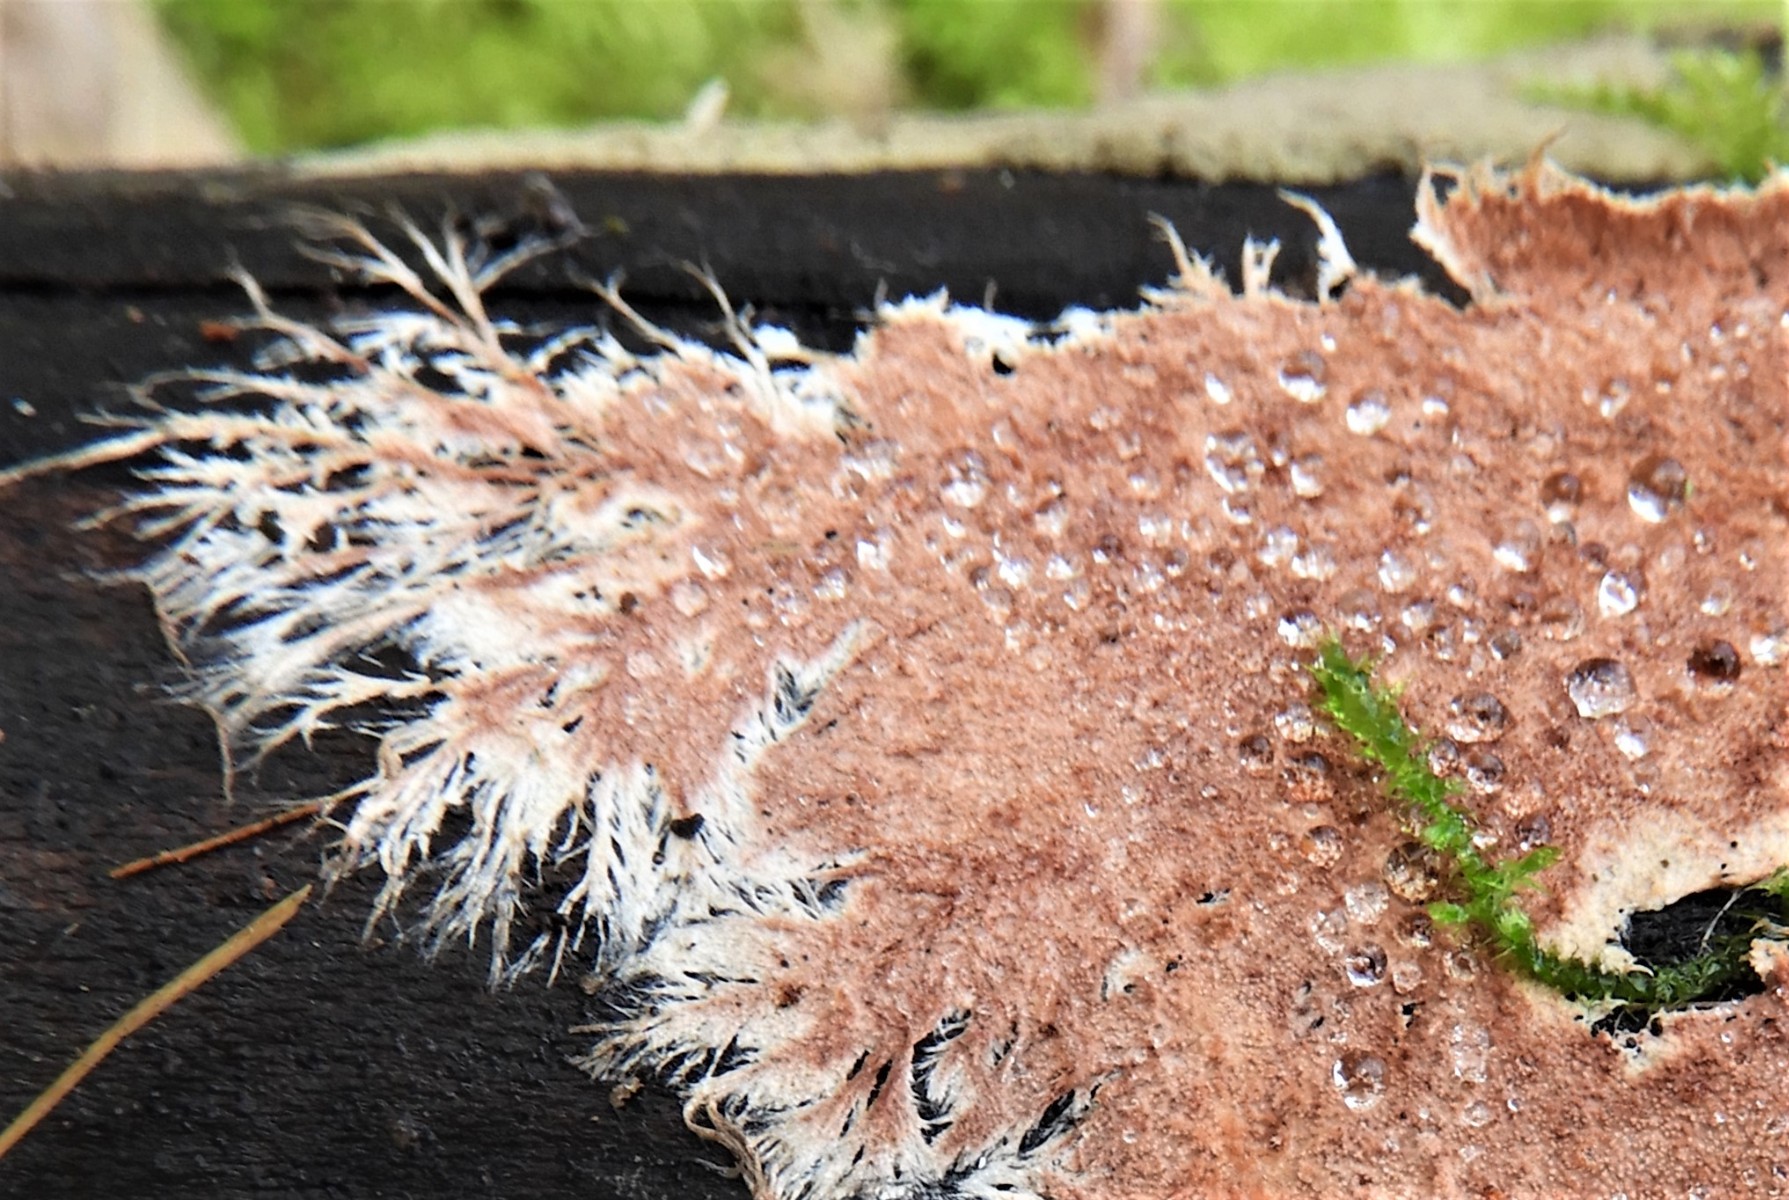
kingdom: Fungi
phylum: Basidiomycota
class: Agaricomycetes
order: Polyporales
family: Steccherinaceae
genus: Steccherinum
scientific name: Steccherinum fimbriatum
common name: trådet skønpig
